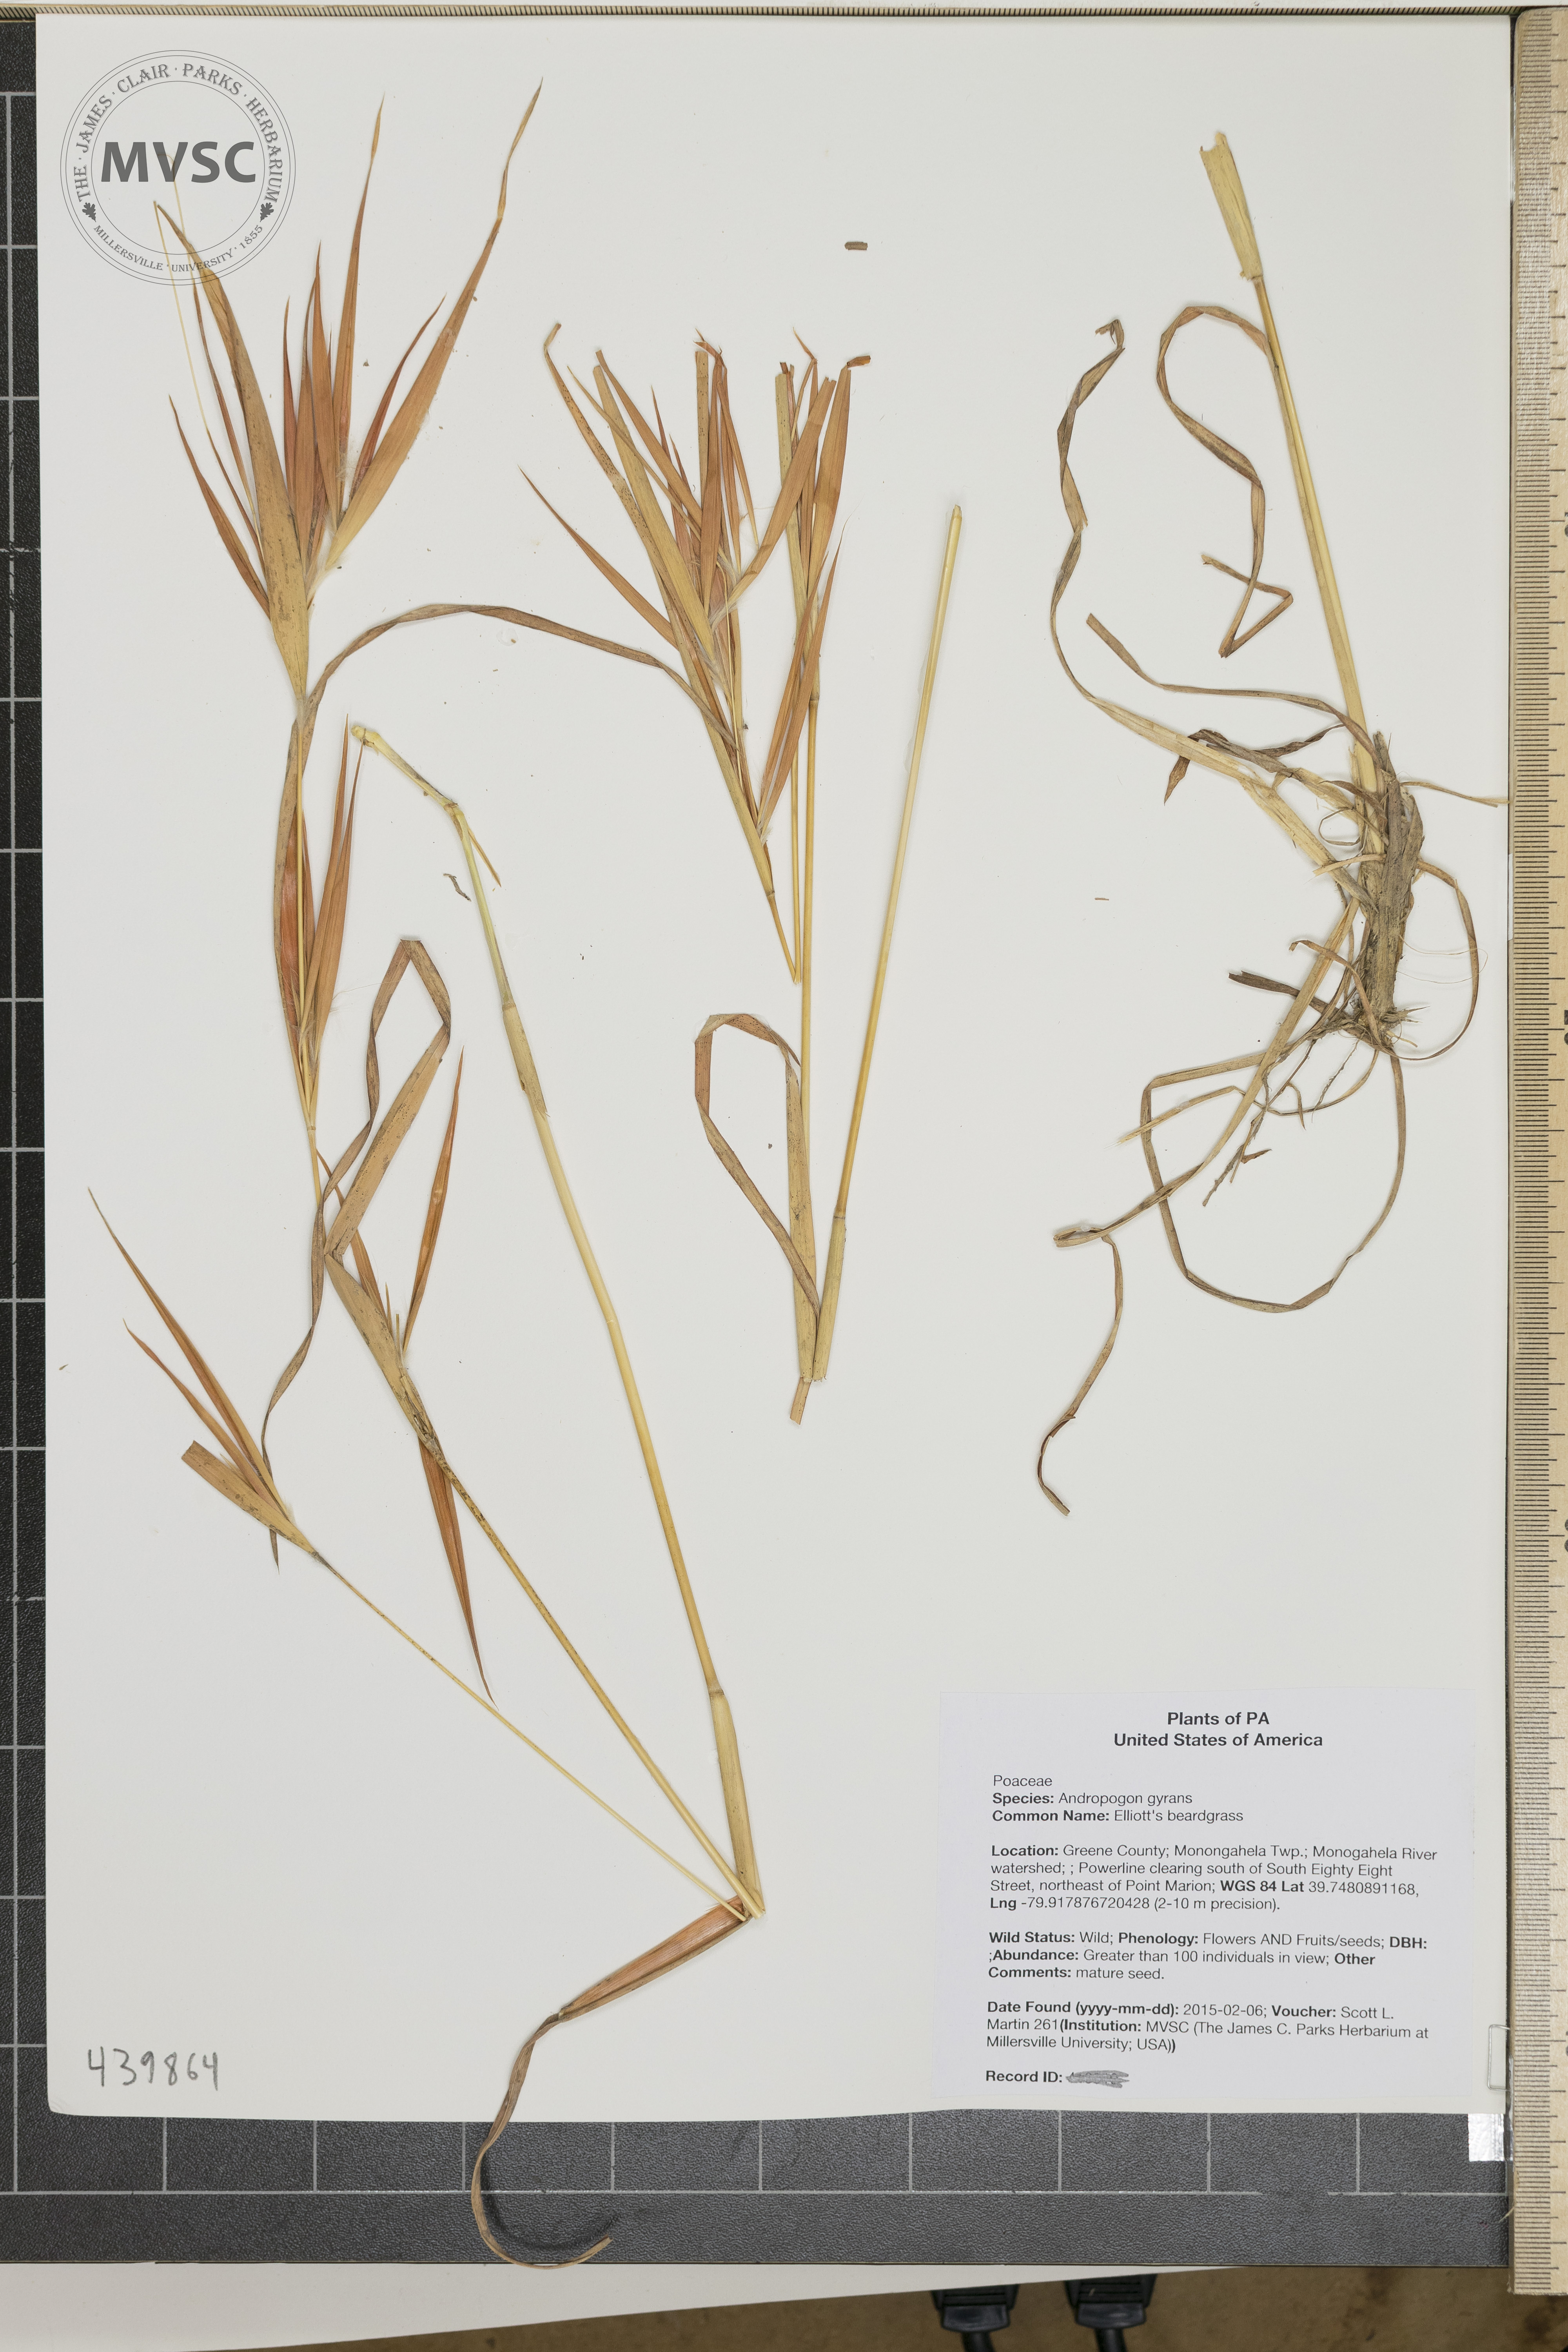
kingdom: Plantae
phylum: Tracheophyta
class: Liliopsida
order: Poales
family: Poaceae
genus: Andropogon
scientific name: Andropogon gyrans
